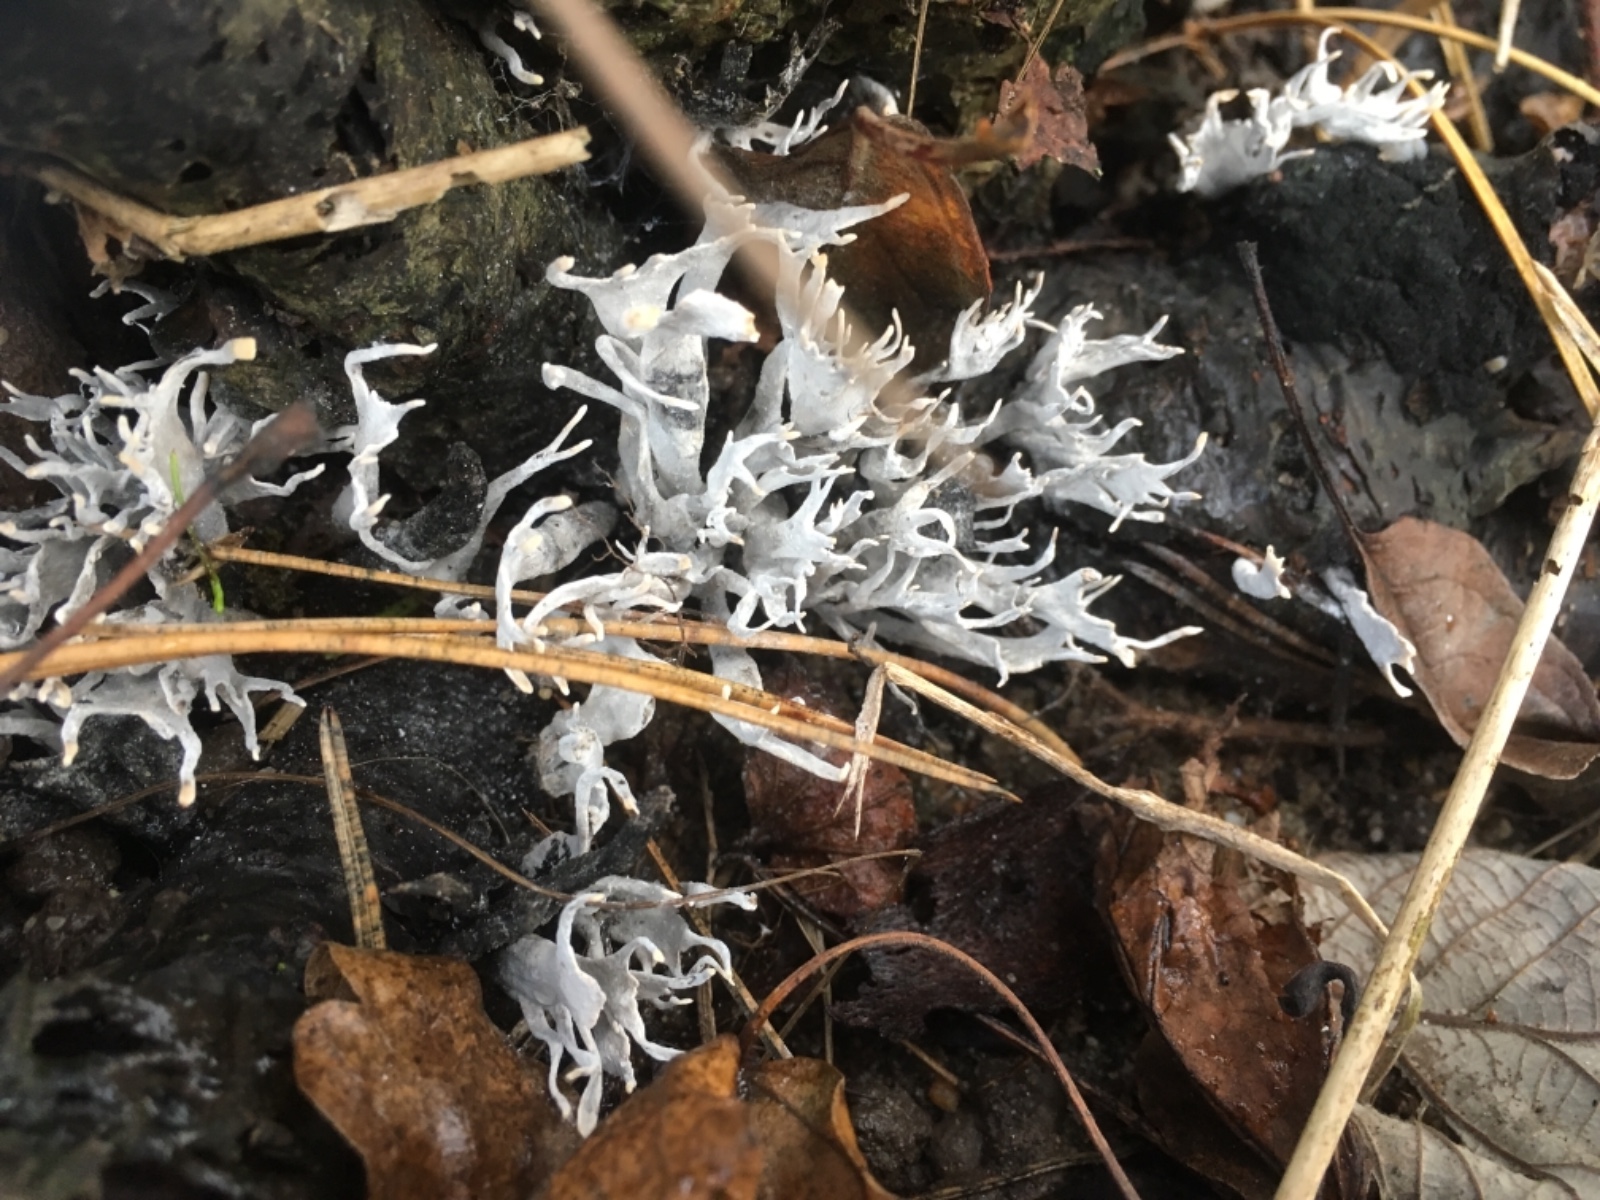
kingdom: Fungi
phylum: Ascomycota
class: Sordariomycetes
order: Xylariales
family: Xylariaceae
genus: Xylaria
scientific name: Xylaria hypoxylon
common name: grenet stødsvamp
